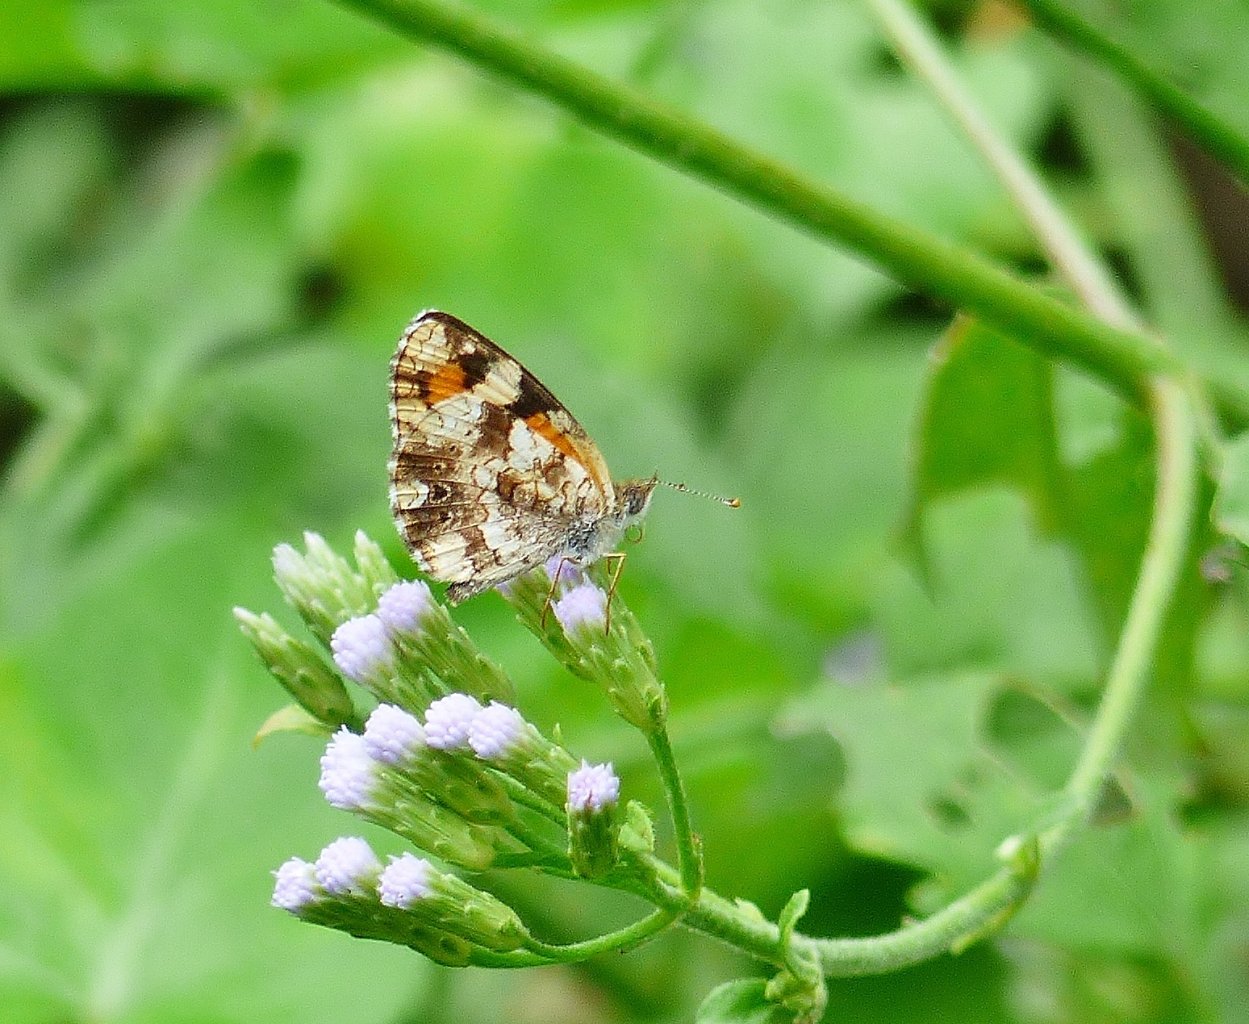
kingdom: Animalia
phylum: Arthropoda
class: Insecta
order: Lepidoptera
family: Nymphalidae
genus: Phyciodes
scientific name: Phyciodes phaon
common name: Phaon Crescent
